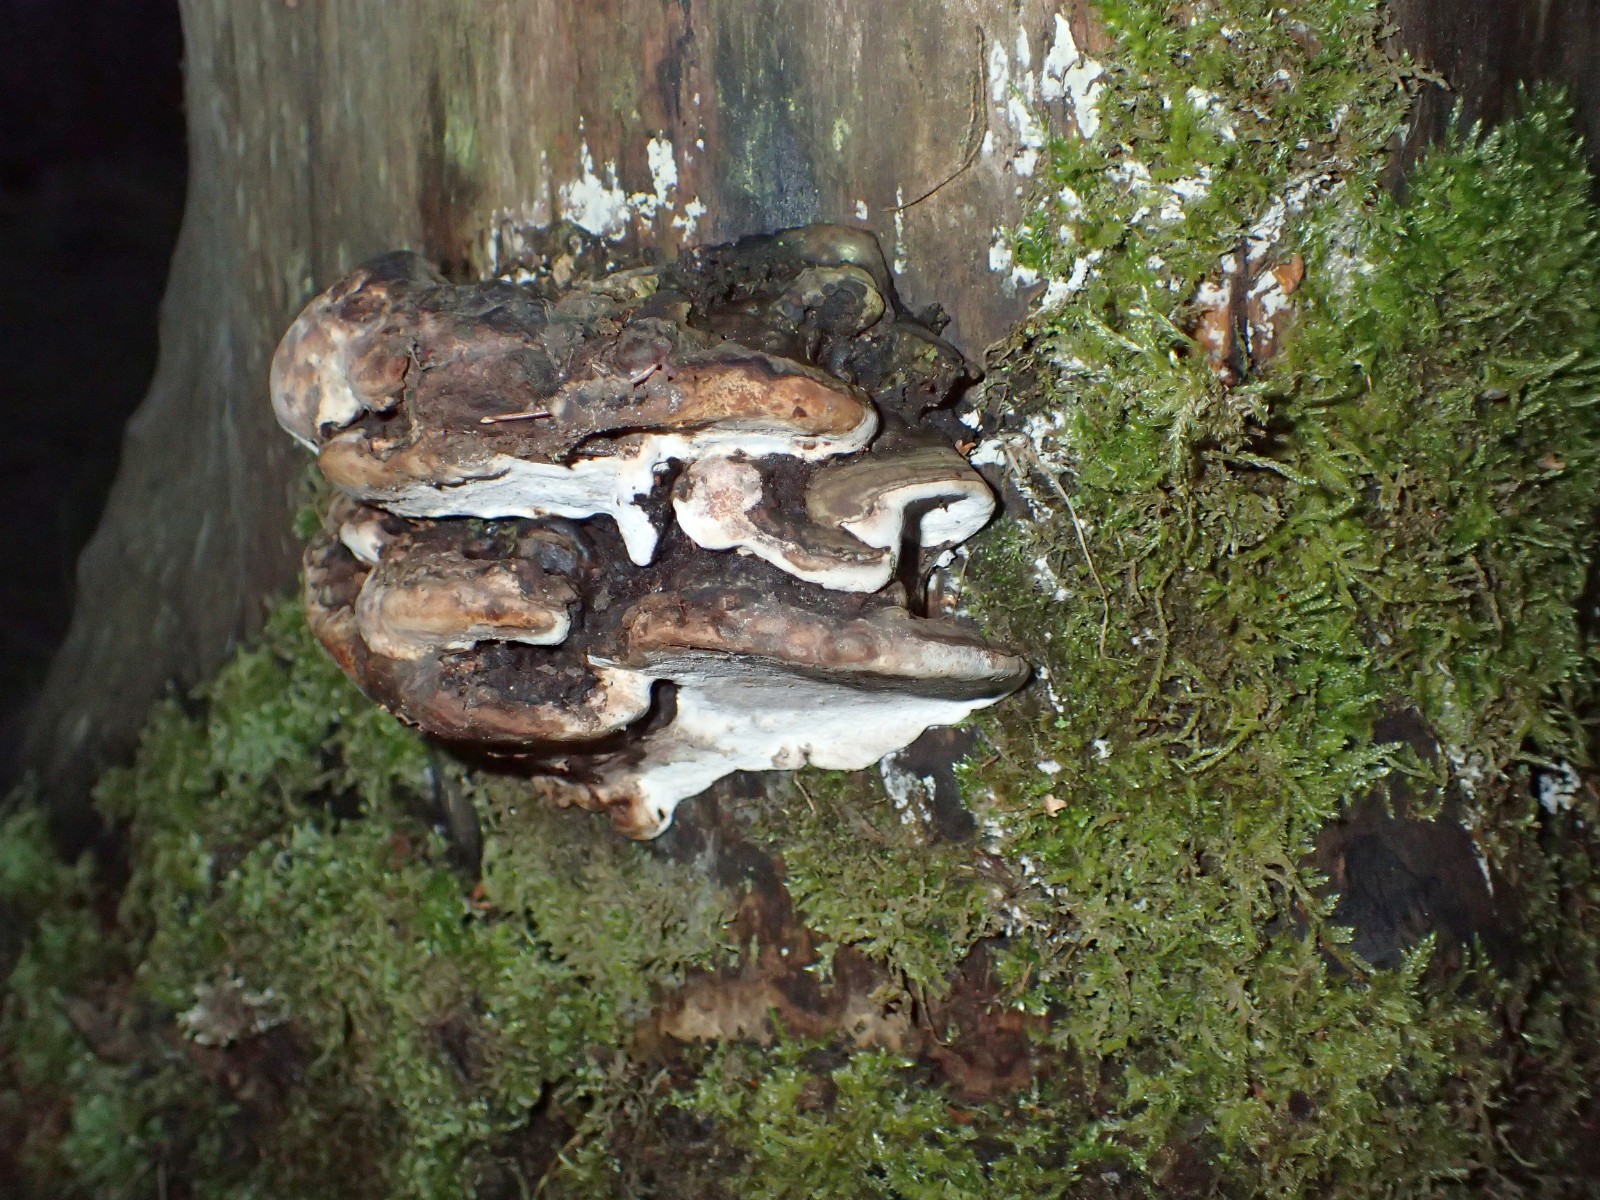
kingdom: Fungi
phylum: Basidiomycota
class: Agaricomycetes
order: Polyporales
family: Polyporaceae
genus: Ganoderma
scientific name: Ganoderma applanatum
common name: flad lakporesvamp
